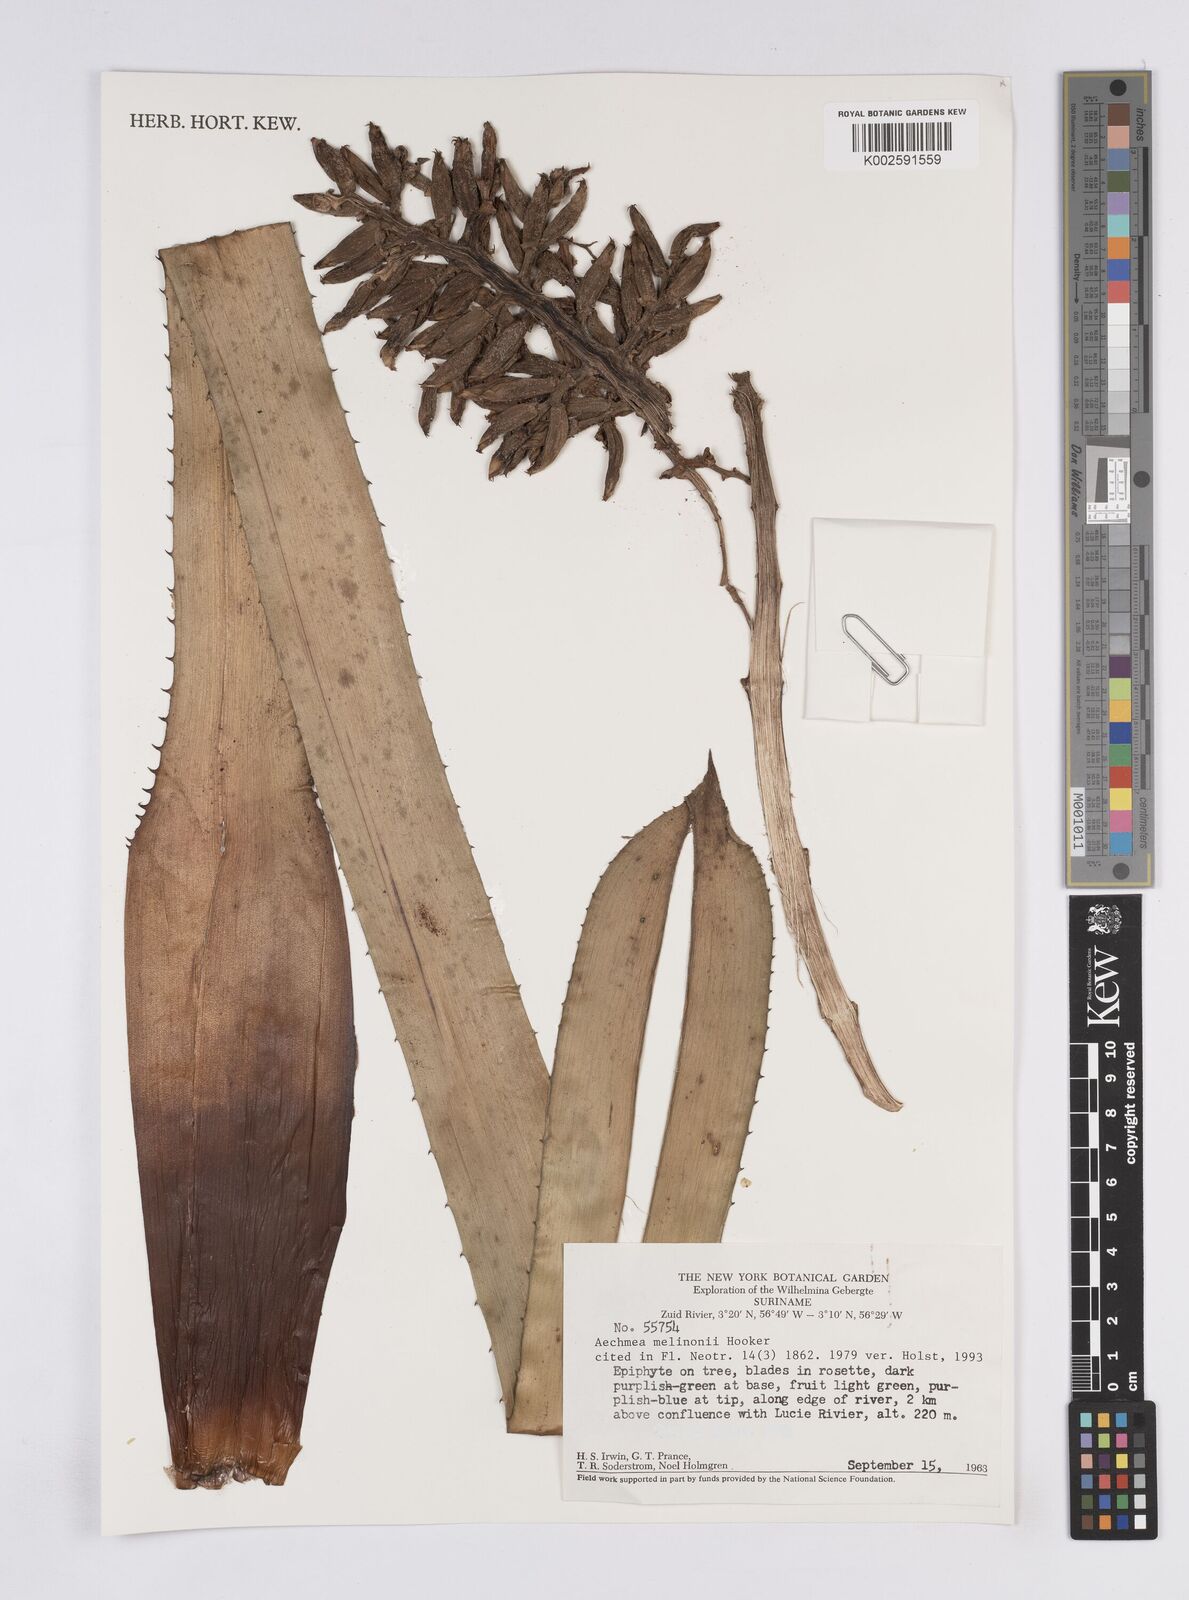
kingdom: Plantae
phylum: Tracheophyta
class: Liliopsida
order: Poales
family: Bromeliaceae
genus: Aechmea
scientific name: Aechmea melinonii
